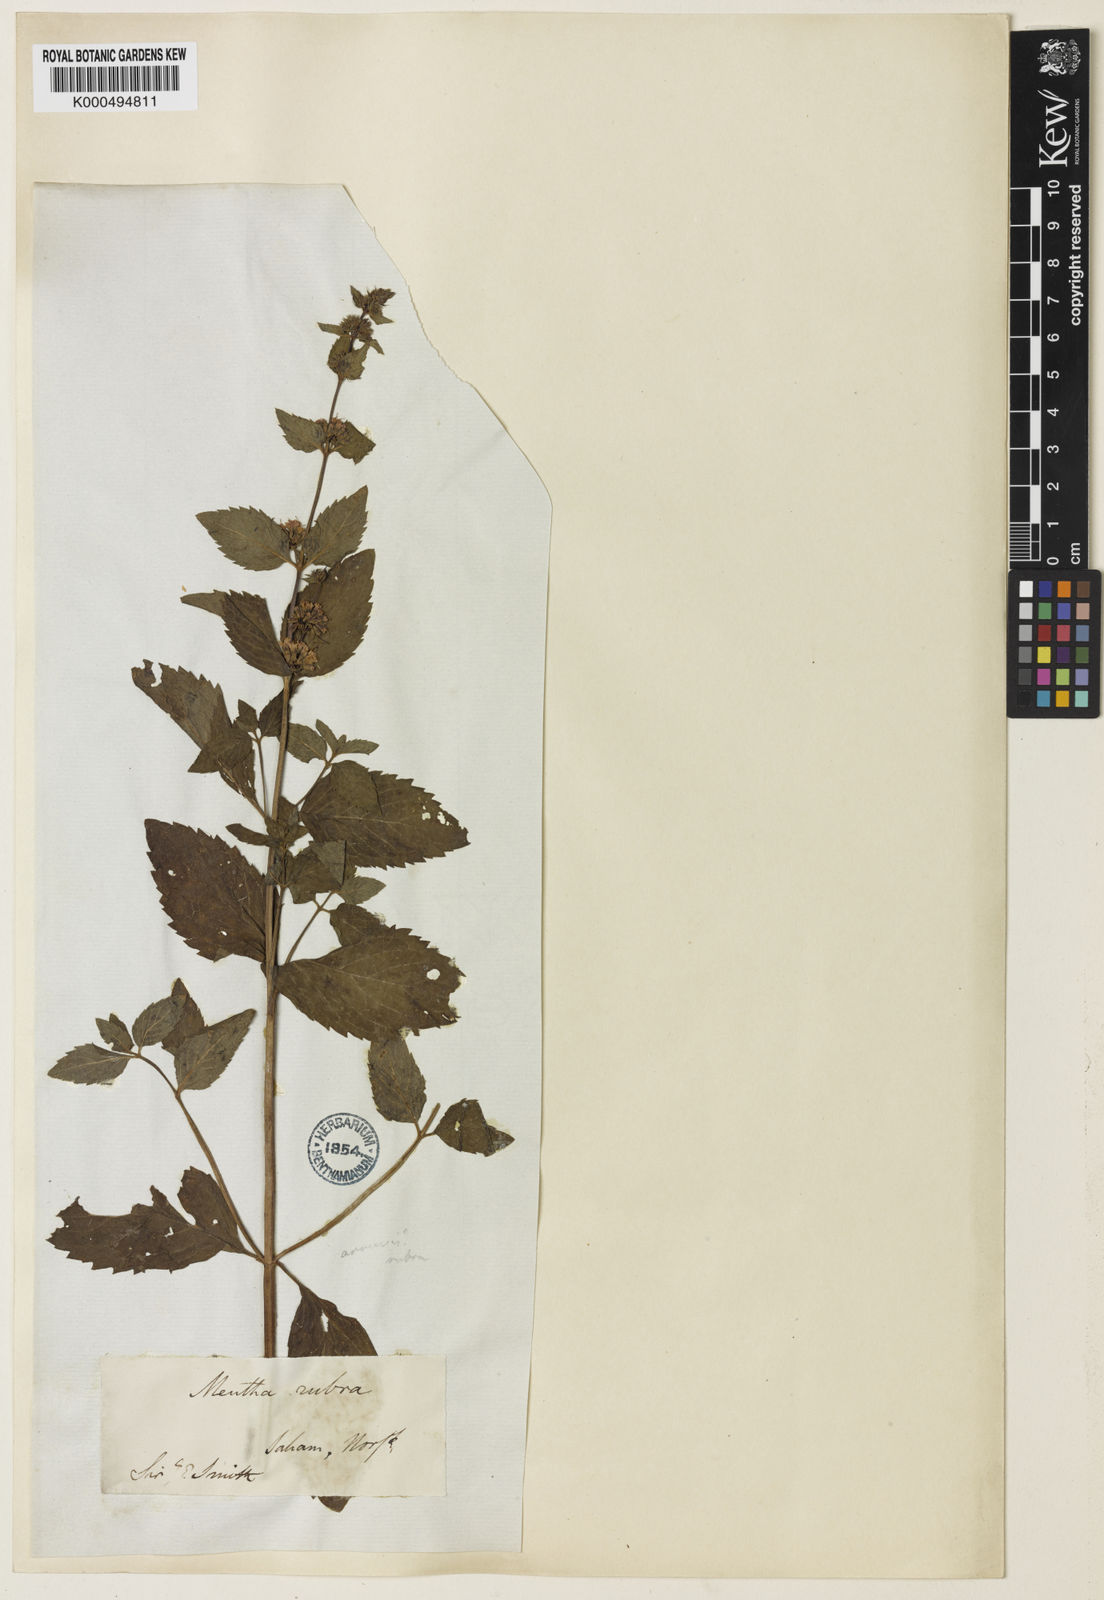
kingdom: Plantae
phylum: Tracheophyta
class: Magnoliopsida
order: Lamiales
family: Lamiaceae
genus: Mentha
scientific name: Mentha wirtgeniana
